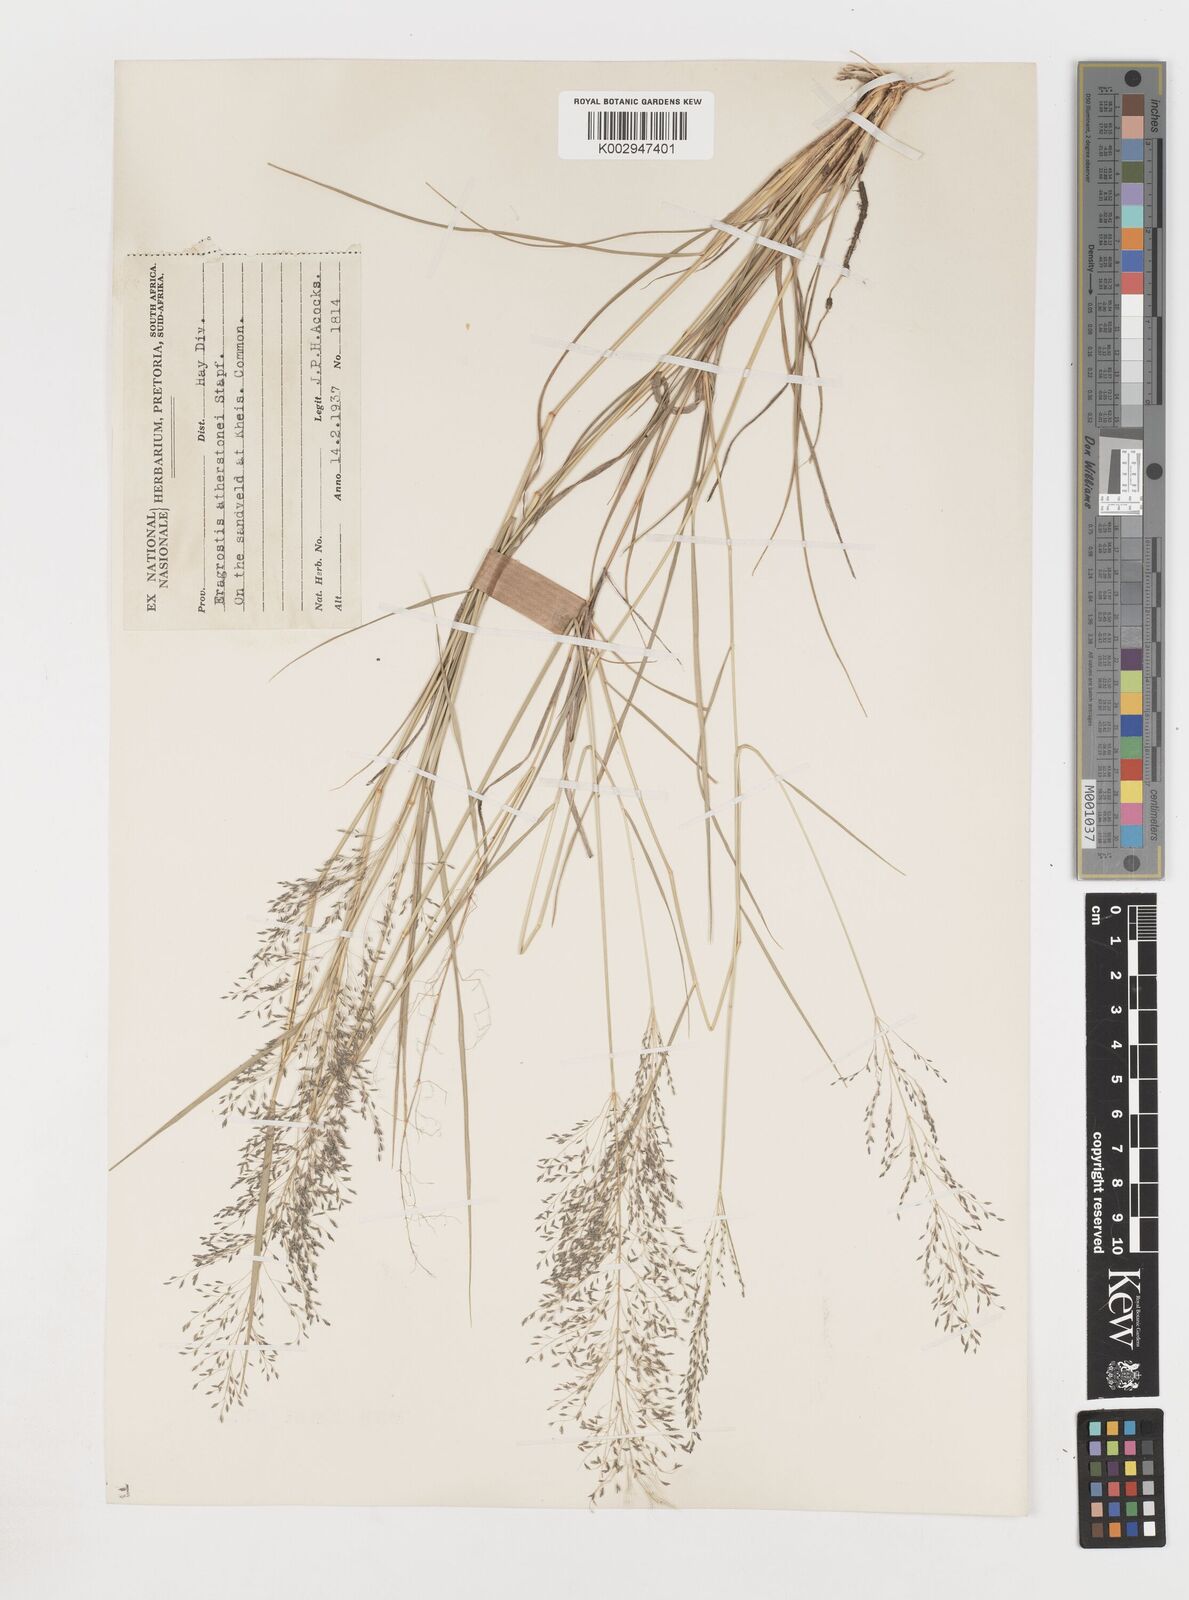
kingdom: Plantae
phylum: Tracheophyta
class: Liliopsida
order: Poales
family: Poaceae
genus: Eragrostis
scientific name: Eragrostis
